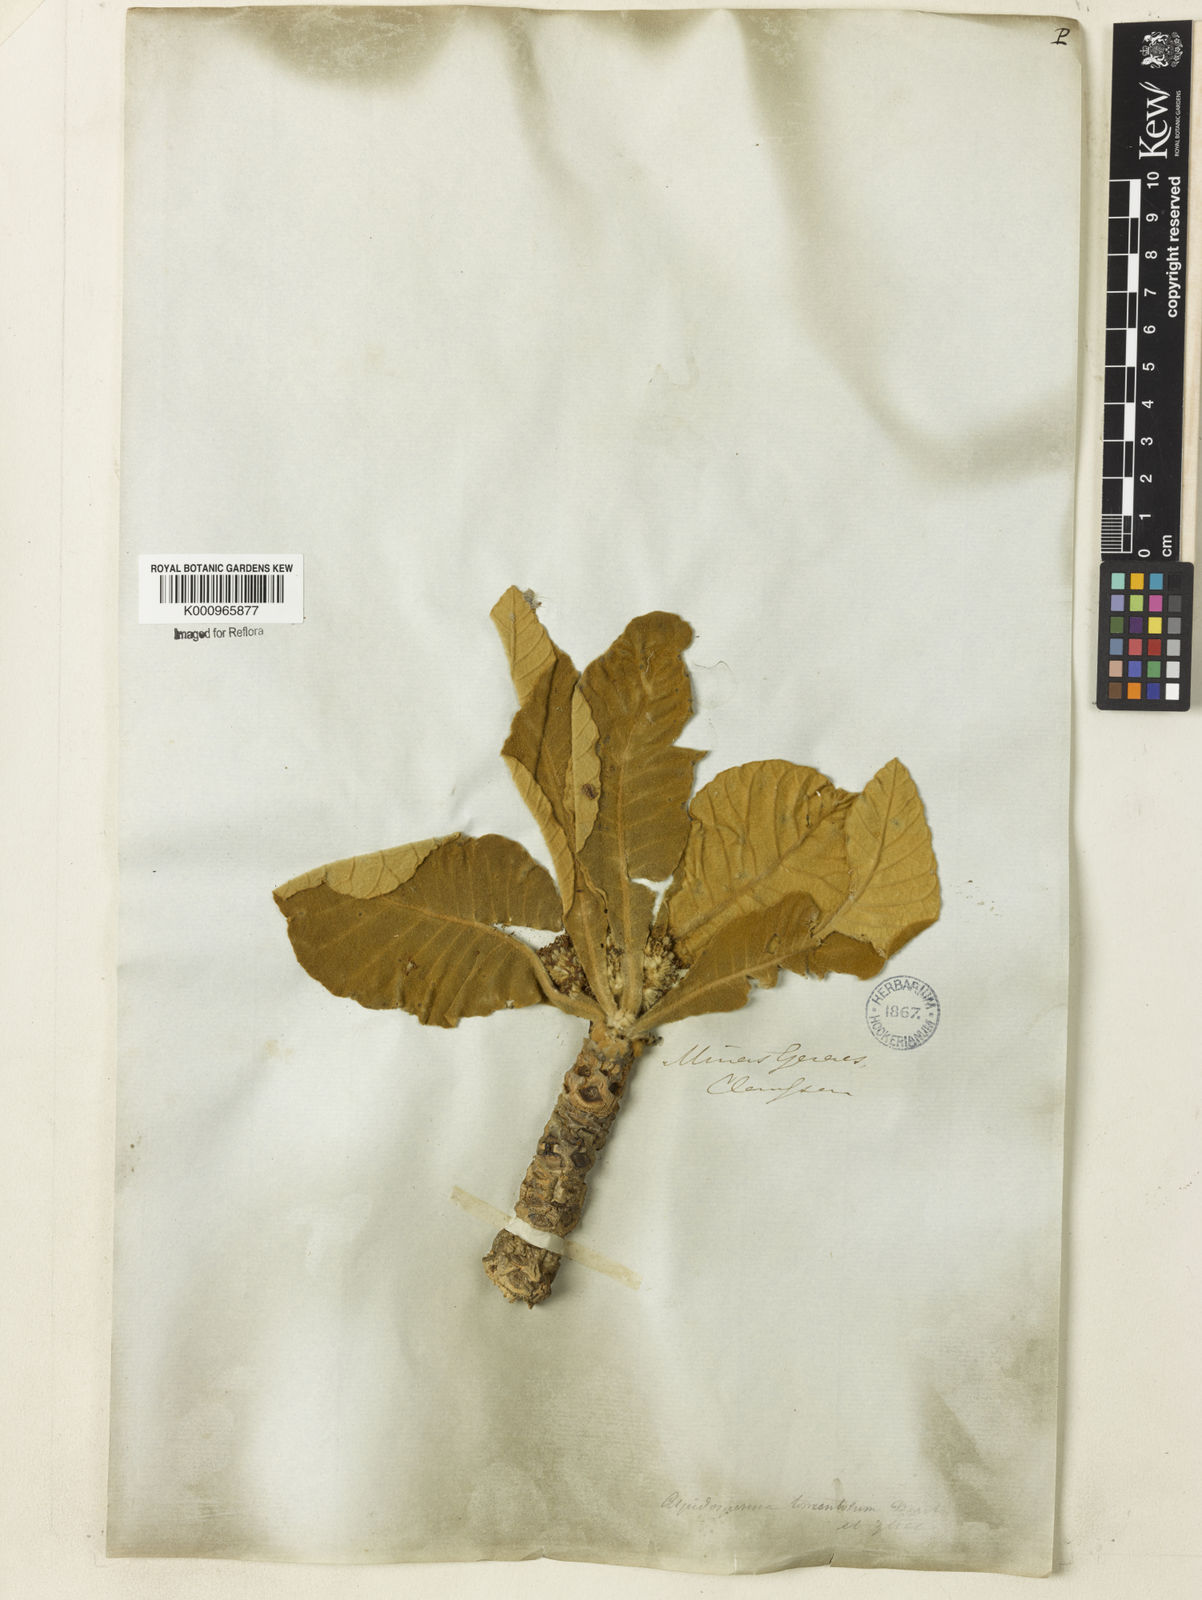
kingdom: Plantae
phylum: Tracheophyta
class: Magnoliopsida
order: Gentianales
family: Apocynaceae
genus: Aspidosperma
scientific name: Aspidosperma tomentosum
